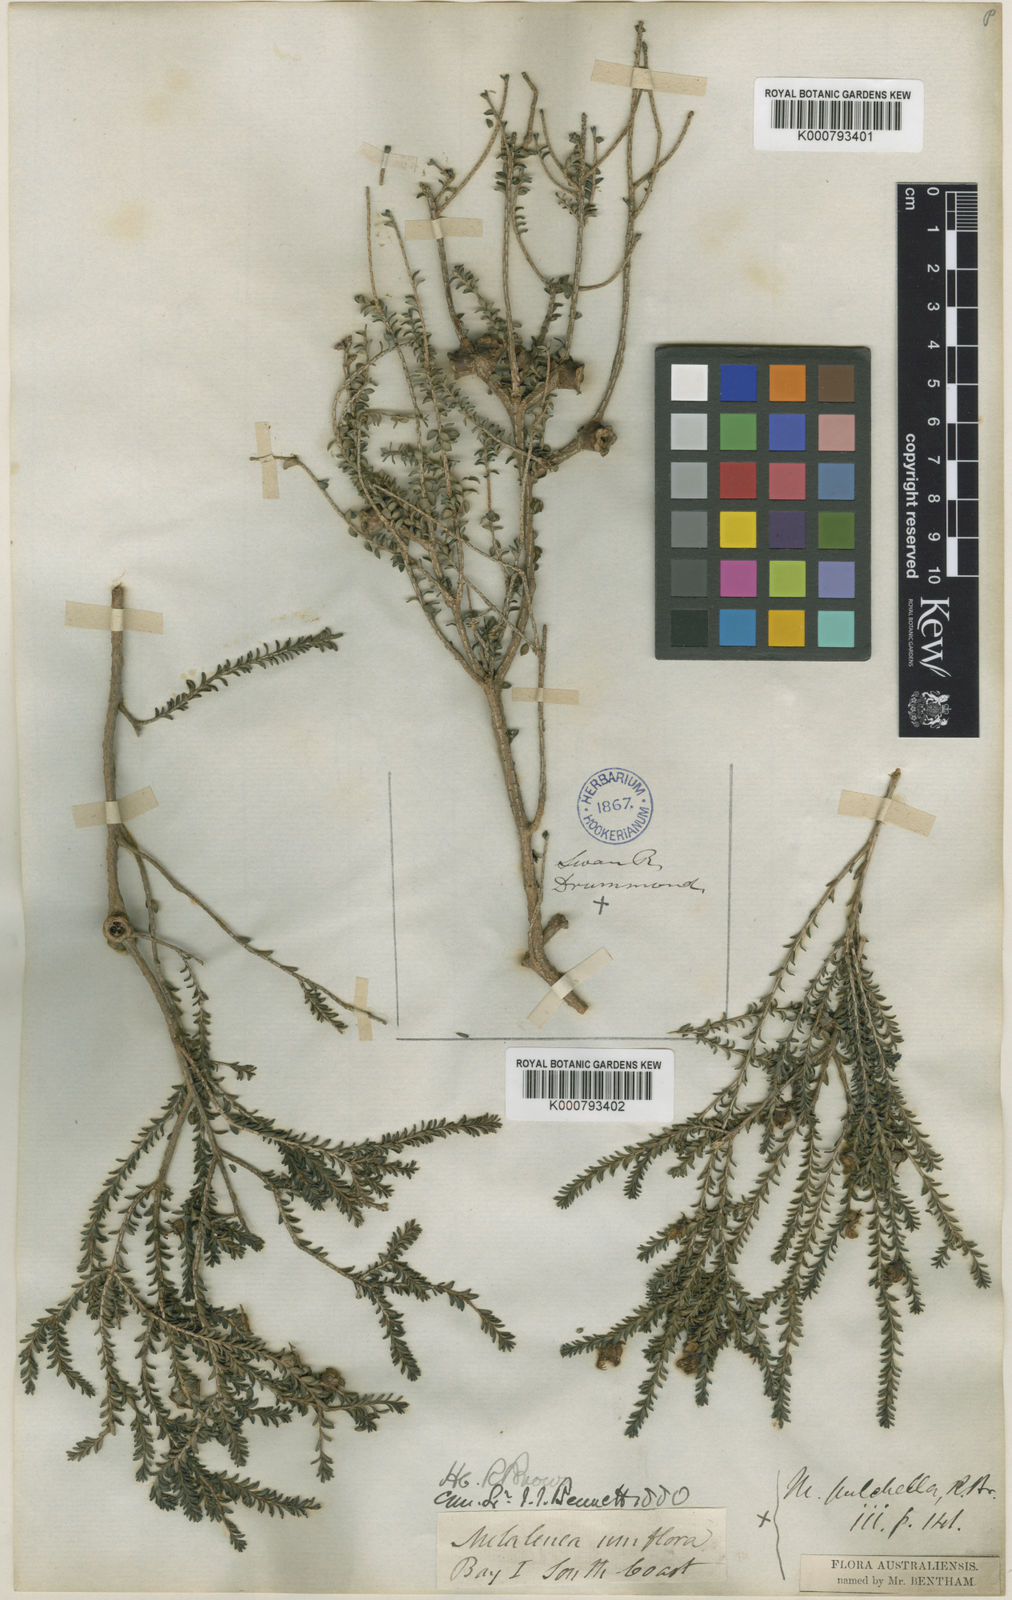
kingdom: Plantae
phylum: Tracheophyta
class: Magnoliopsida
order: Myrtales
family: Myrtaceae
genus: Melaleuca
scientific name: Melaleuca pulchella
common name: Claw-flower
